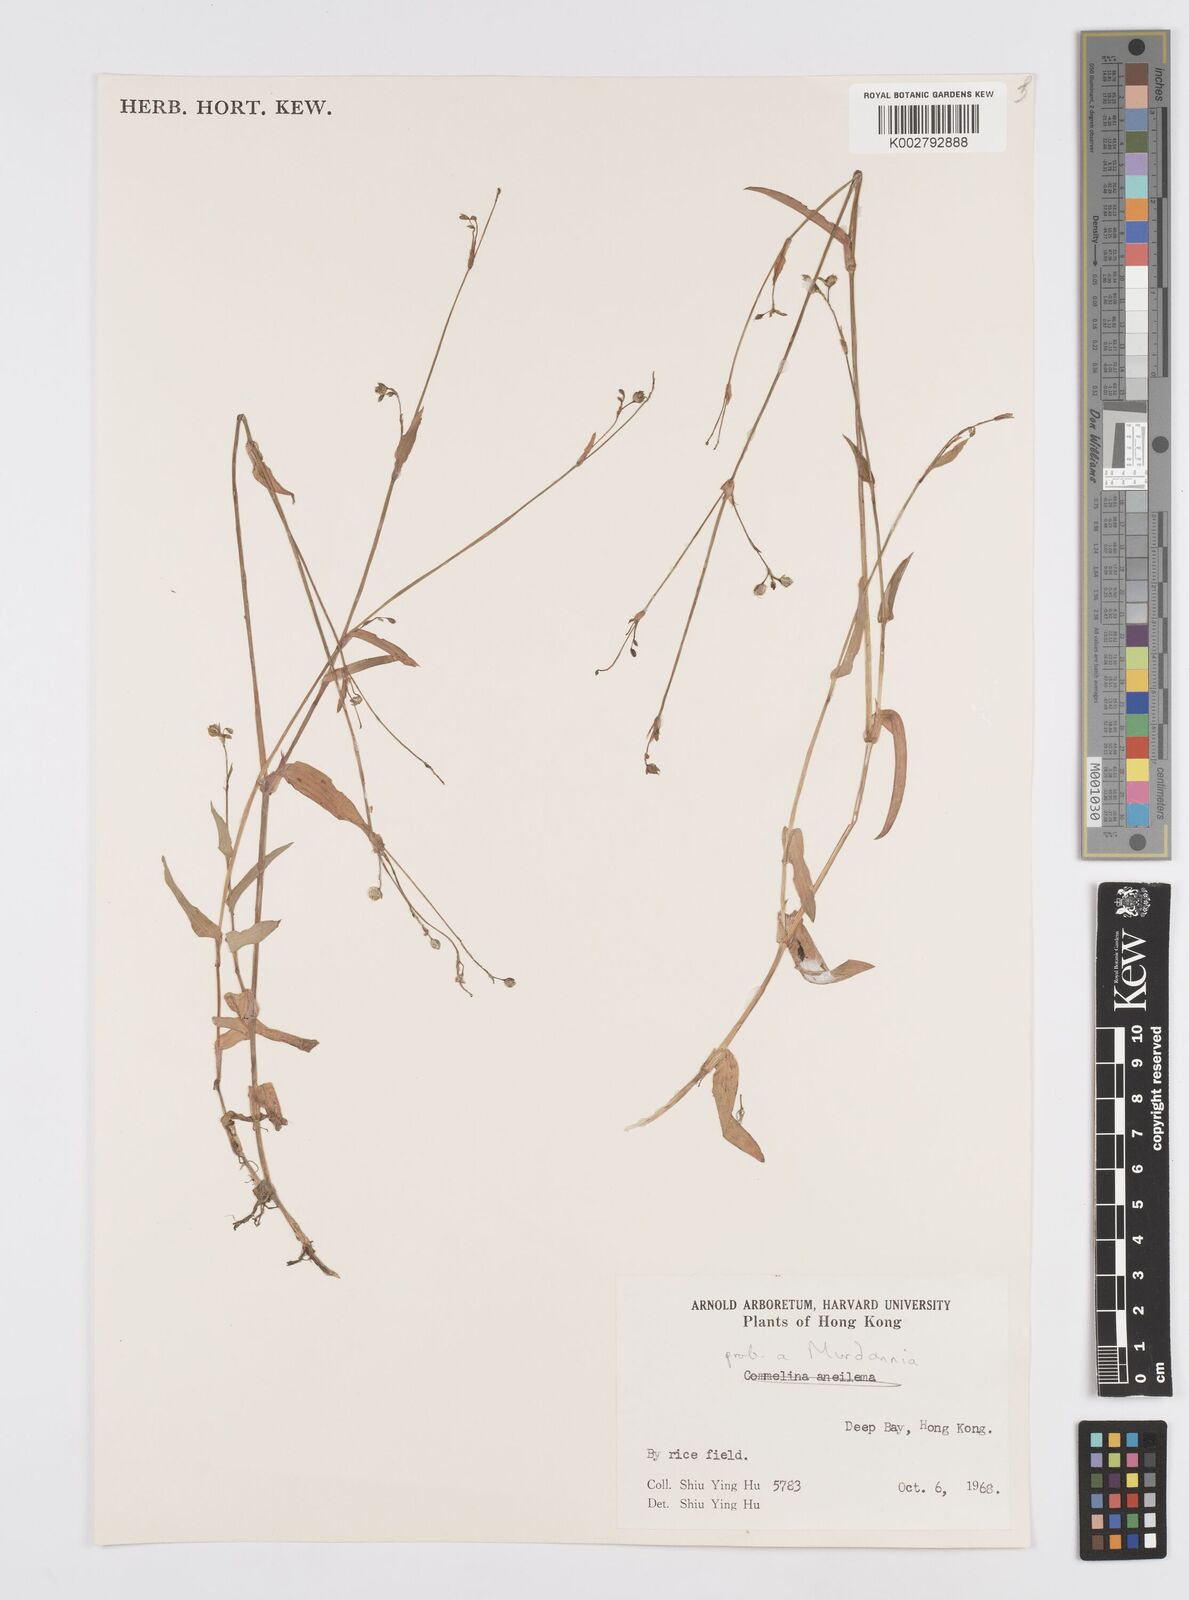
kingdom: Plantae
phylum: Tracheophyta
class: Liliopsida
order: Commelinales
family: Commelinaceae
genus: Murdannia
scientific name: Murdannia
